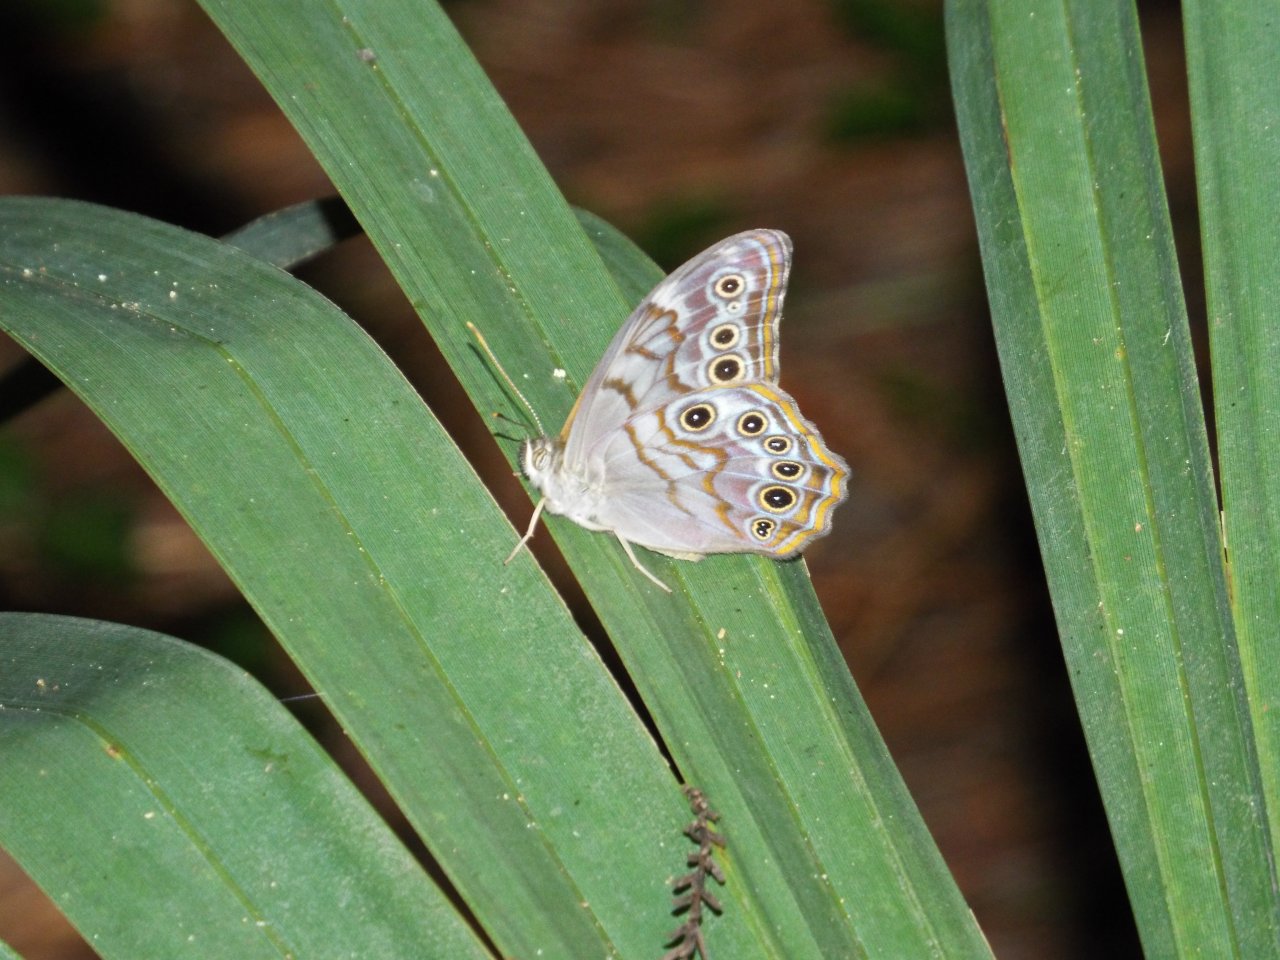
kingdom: Animalia
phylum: Arthropoda
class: Insecta
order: Lepidoptera
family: Nymphalidae
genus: Lethe
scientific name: Lethe creola
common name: Creole Pearly-Eye
